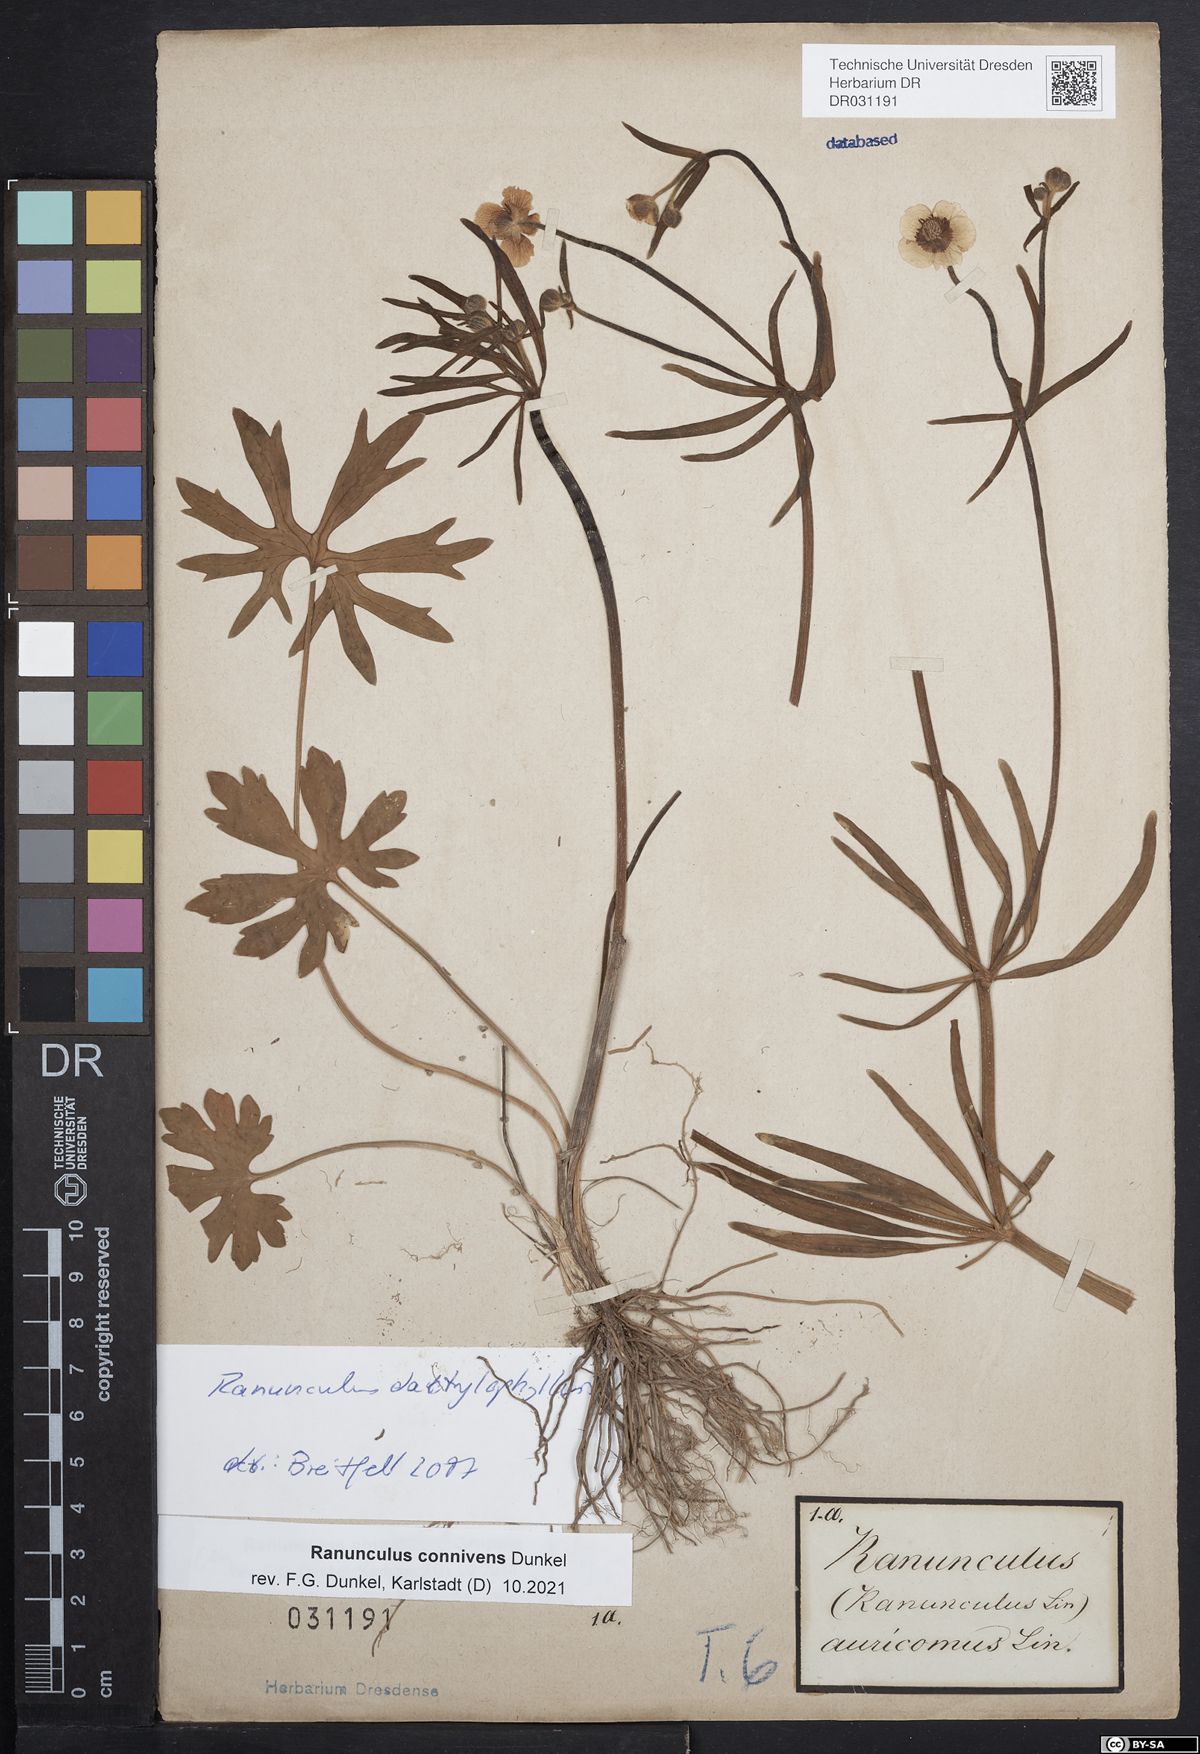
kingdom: Plantae
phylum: Tracheophyta
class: Magnoliopsida
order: Ranunculales
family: Ranunculaceae
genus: Ranunculus
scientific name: Ranunculus connivens
